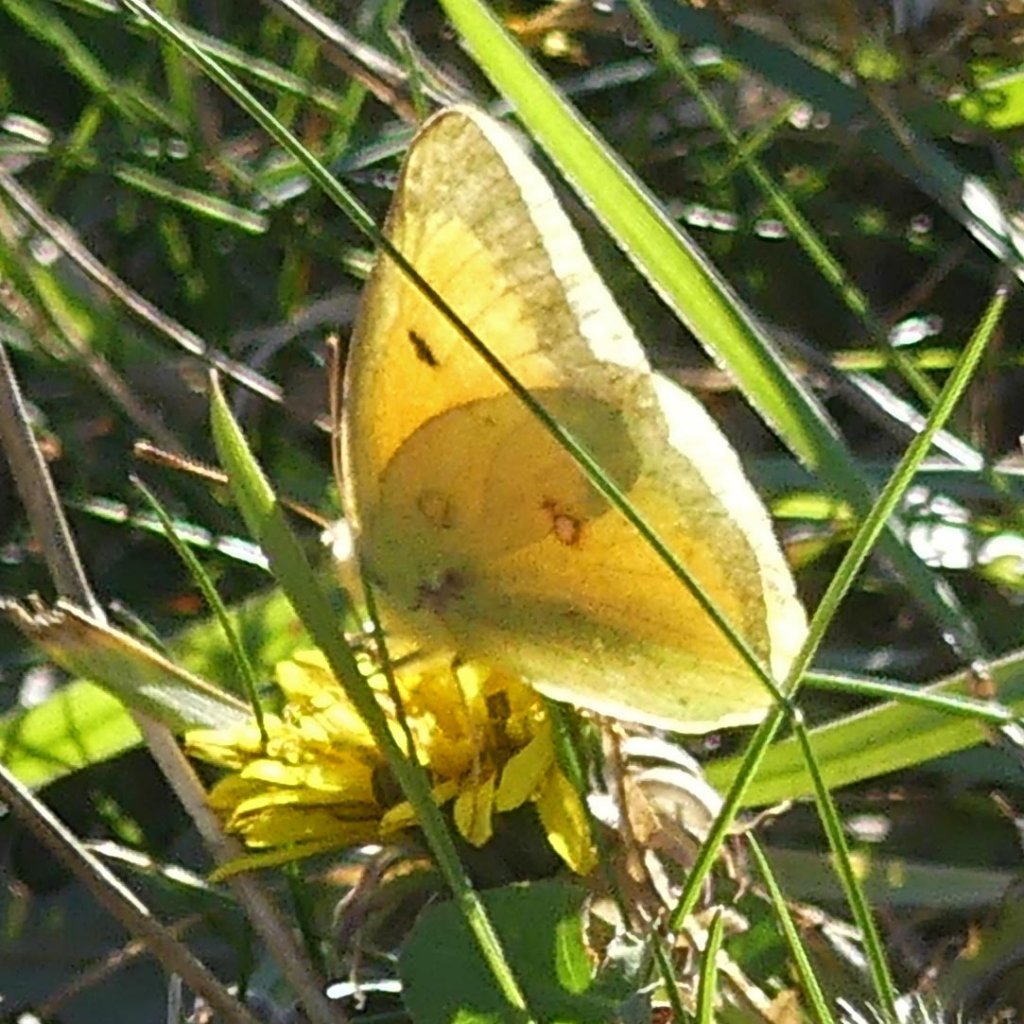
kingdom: Animalia
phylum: Arthropoda
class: Insecta
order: Lepidoptera
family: Pieridae
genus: Colias
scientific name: Colias eurytheme
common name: Orange Sulphur
